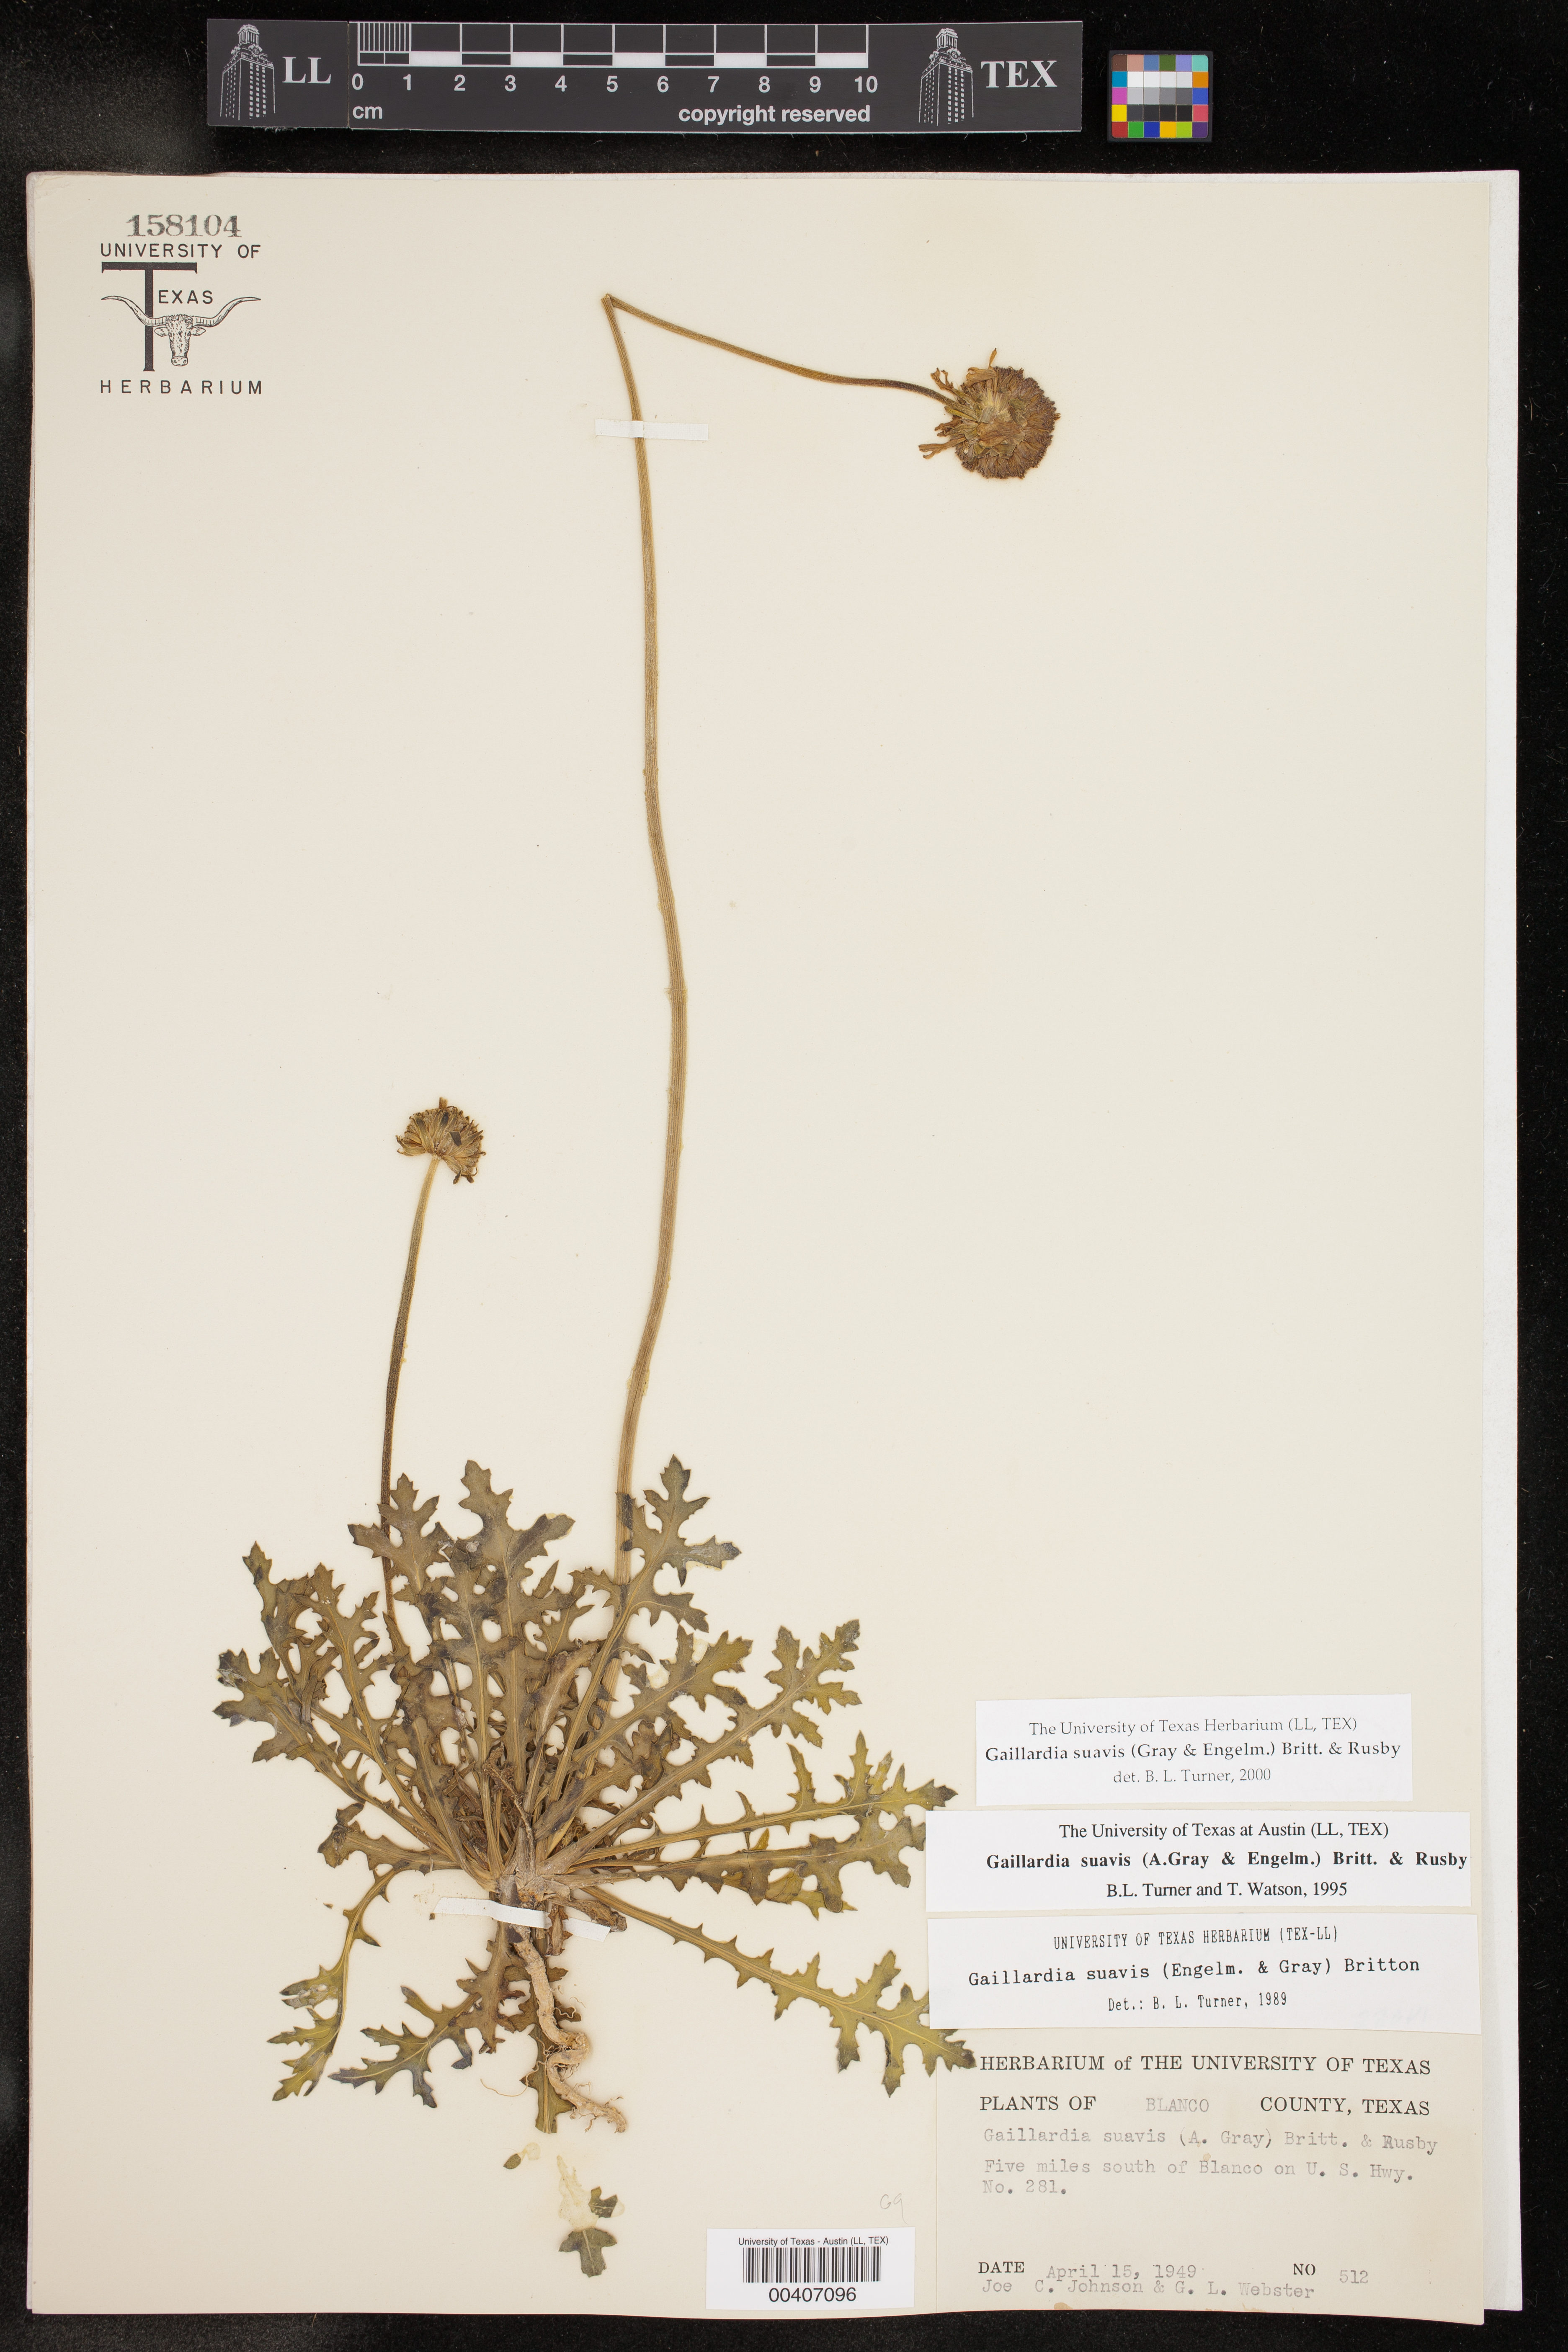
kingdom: Plantae
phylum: Tracheophyta
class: Magnoliopsida
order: Asterales
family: Asteraceae
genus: Gaillardia
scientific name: Gaillardia suavis
